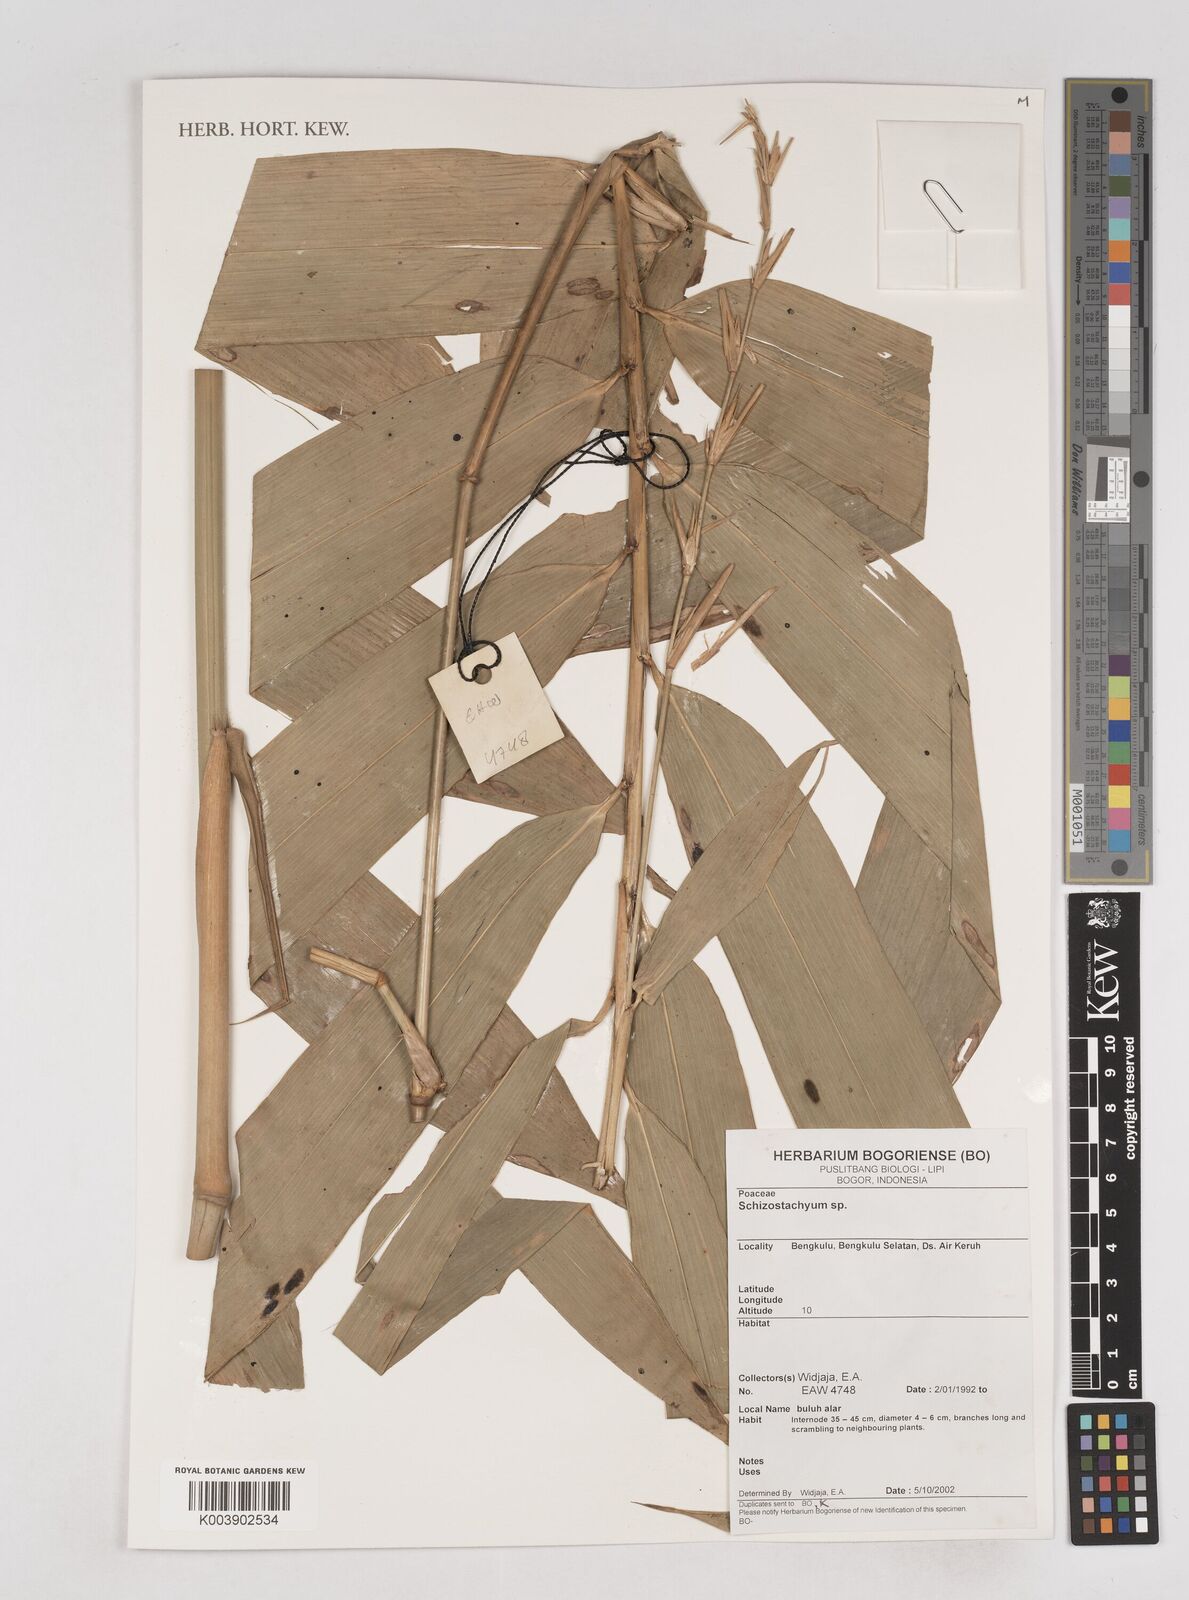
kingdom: Plantae
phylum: Tracheophyta
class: Liliopsida
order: Poales
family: Poaceae
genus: Schizostachyum
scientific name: Schizostachyum
